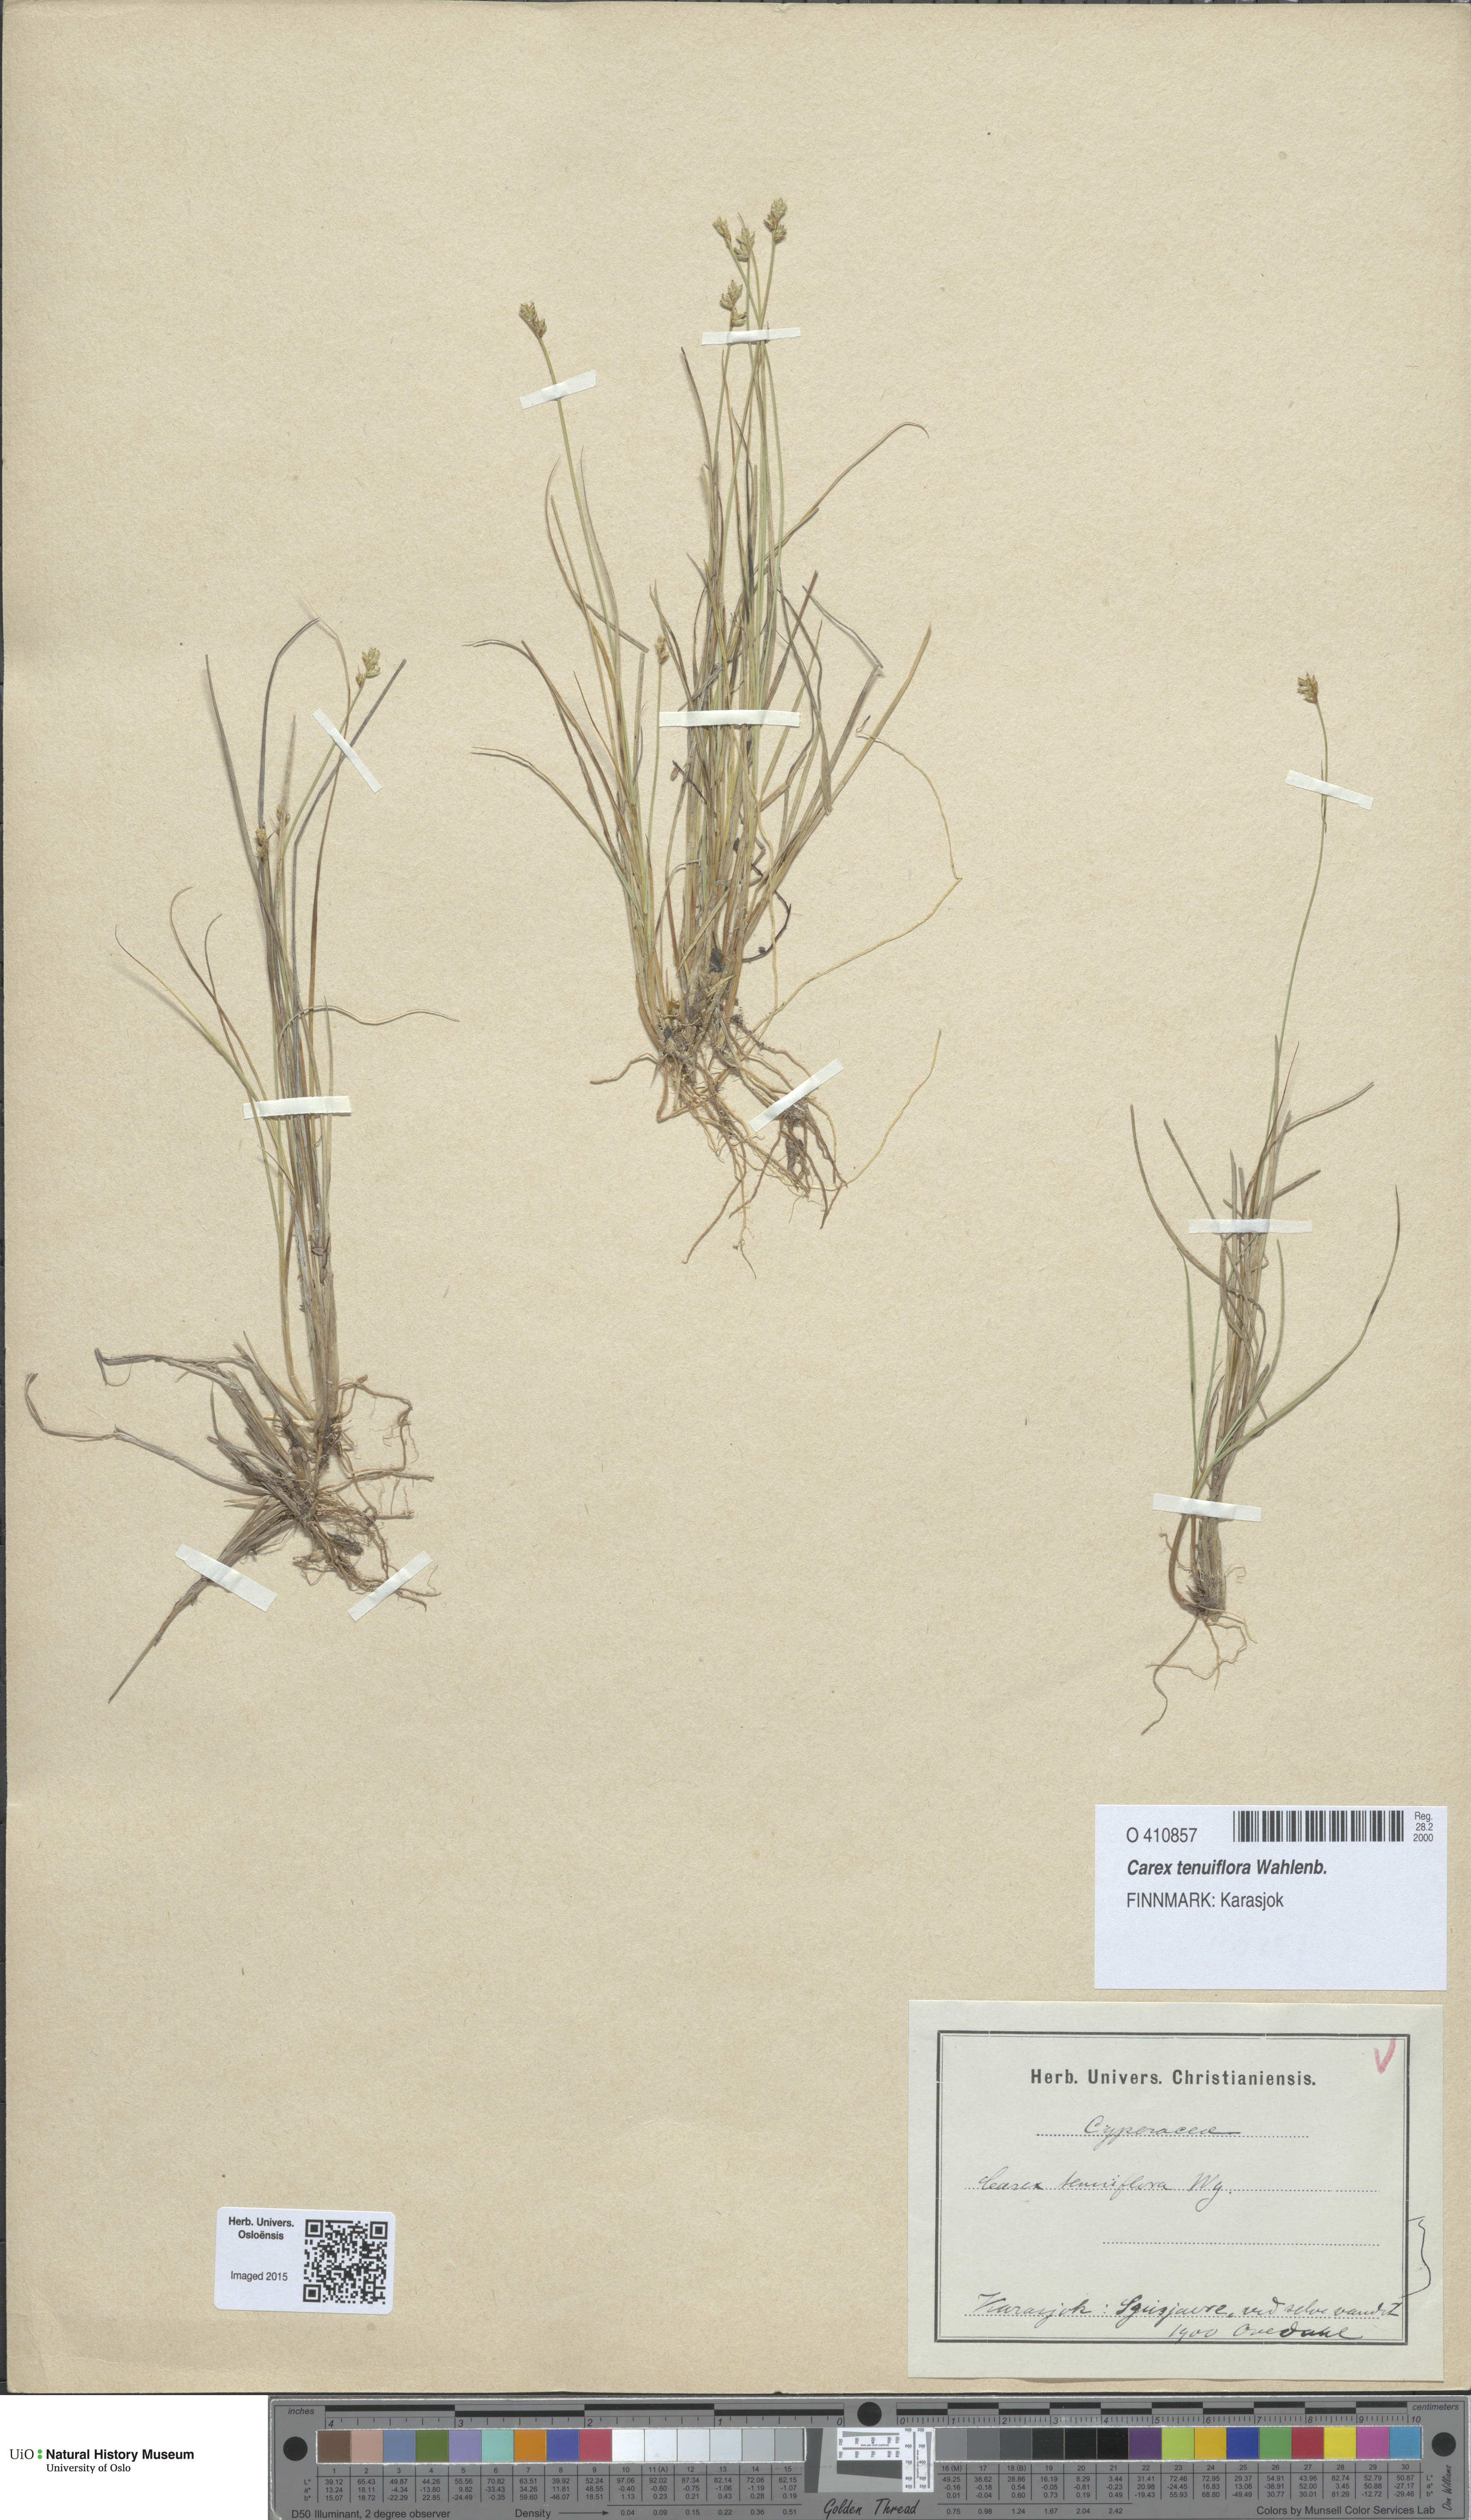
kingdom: Plantae
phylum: Tracheophyta
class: Liliopsida
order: Poales
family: Cyperaceae
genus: Carex
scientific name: Carex tenuiflora
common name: Sparse-flowered sedge
